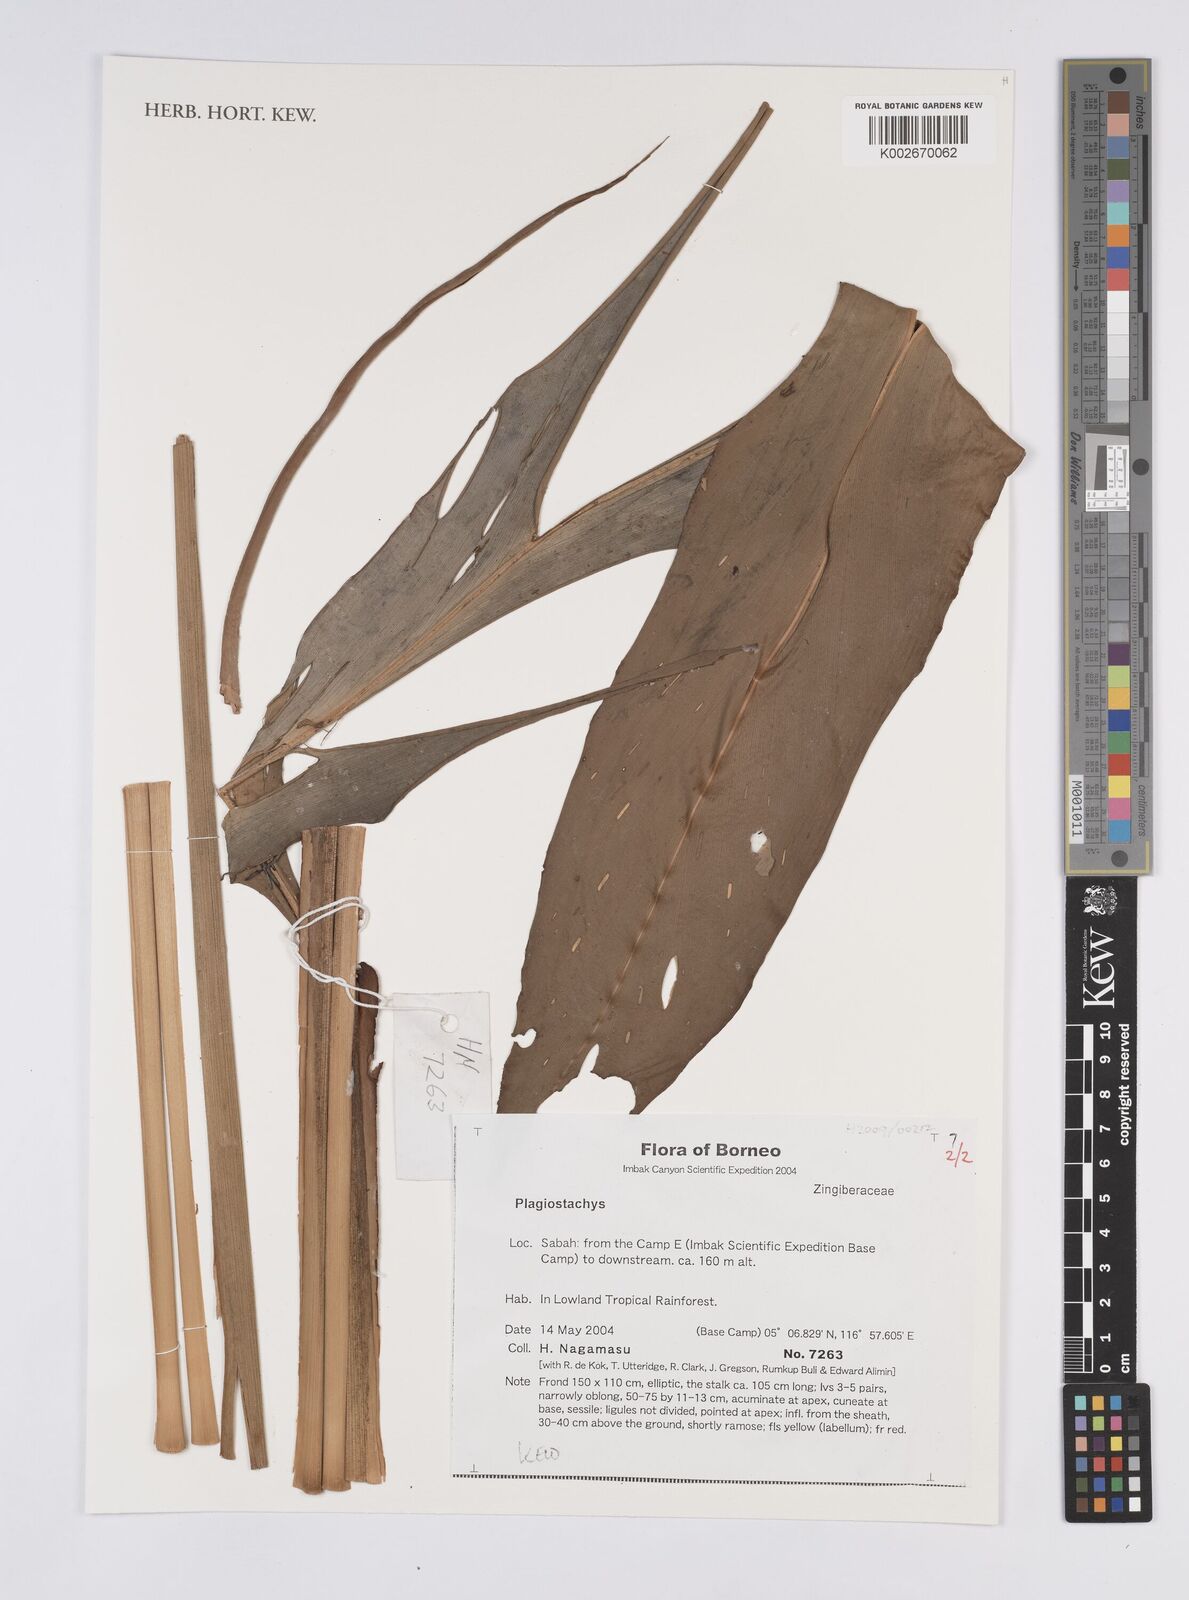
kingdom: Plantae
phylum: Tracheophyta
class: Liliopsida
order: Zingiberales
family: Zingiberaceae
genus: Plagiostachys
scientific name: Plagiostachys
